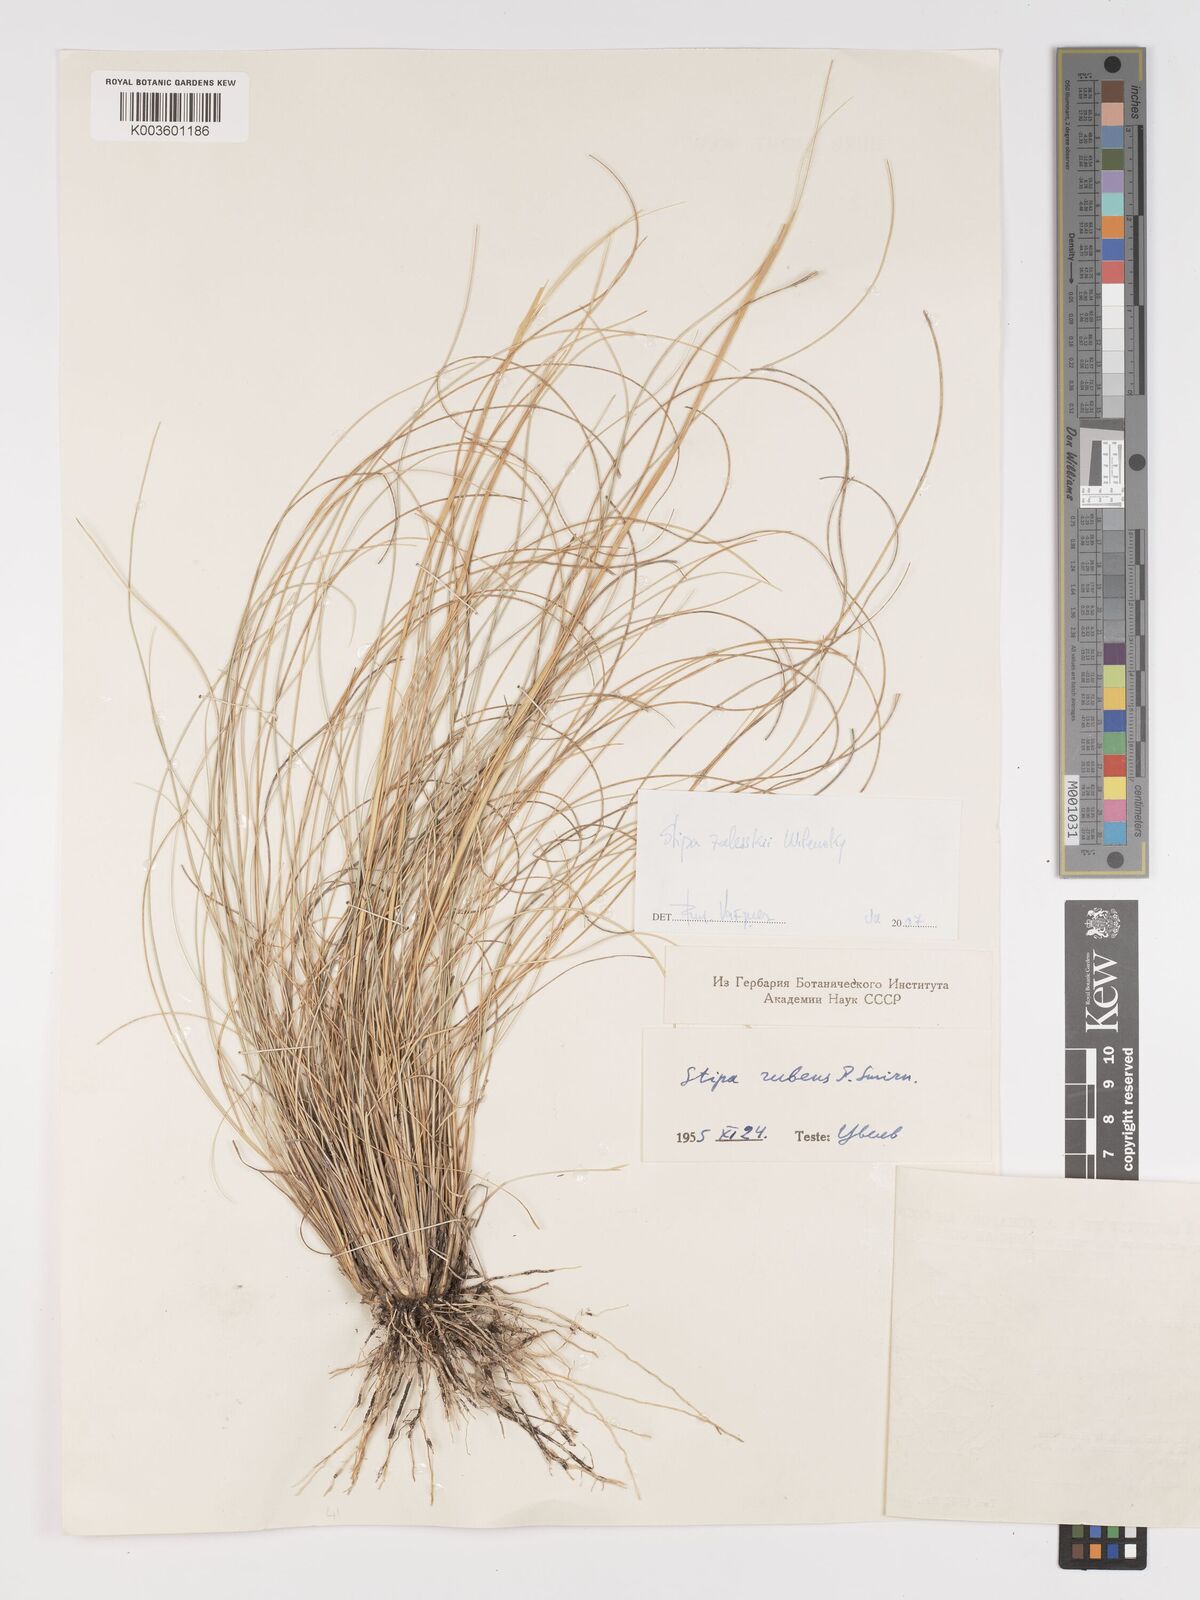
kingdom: Plantae
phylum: Tracheophyta
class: Liliopsida
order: Poales
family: Poaceae
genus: Stipa
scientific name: Stipa
